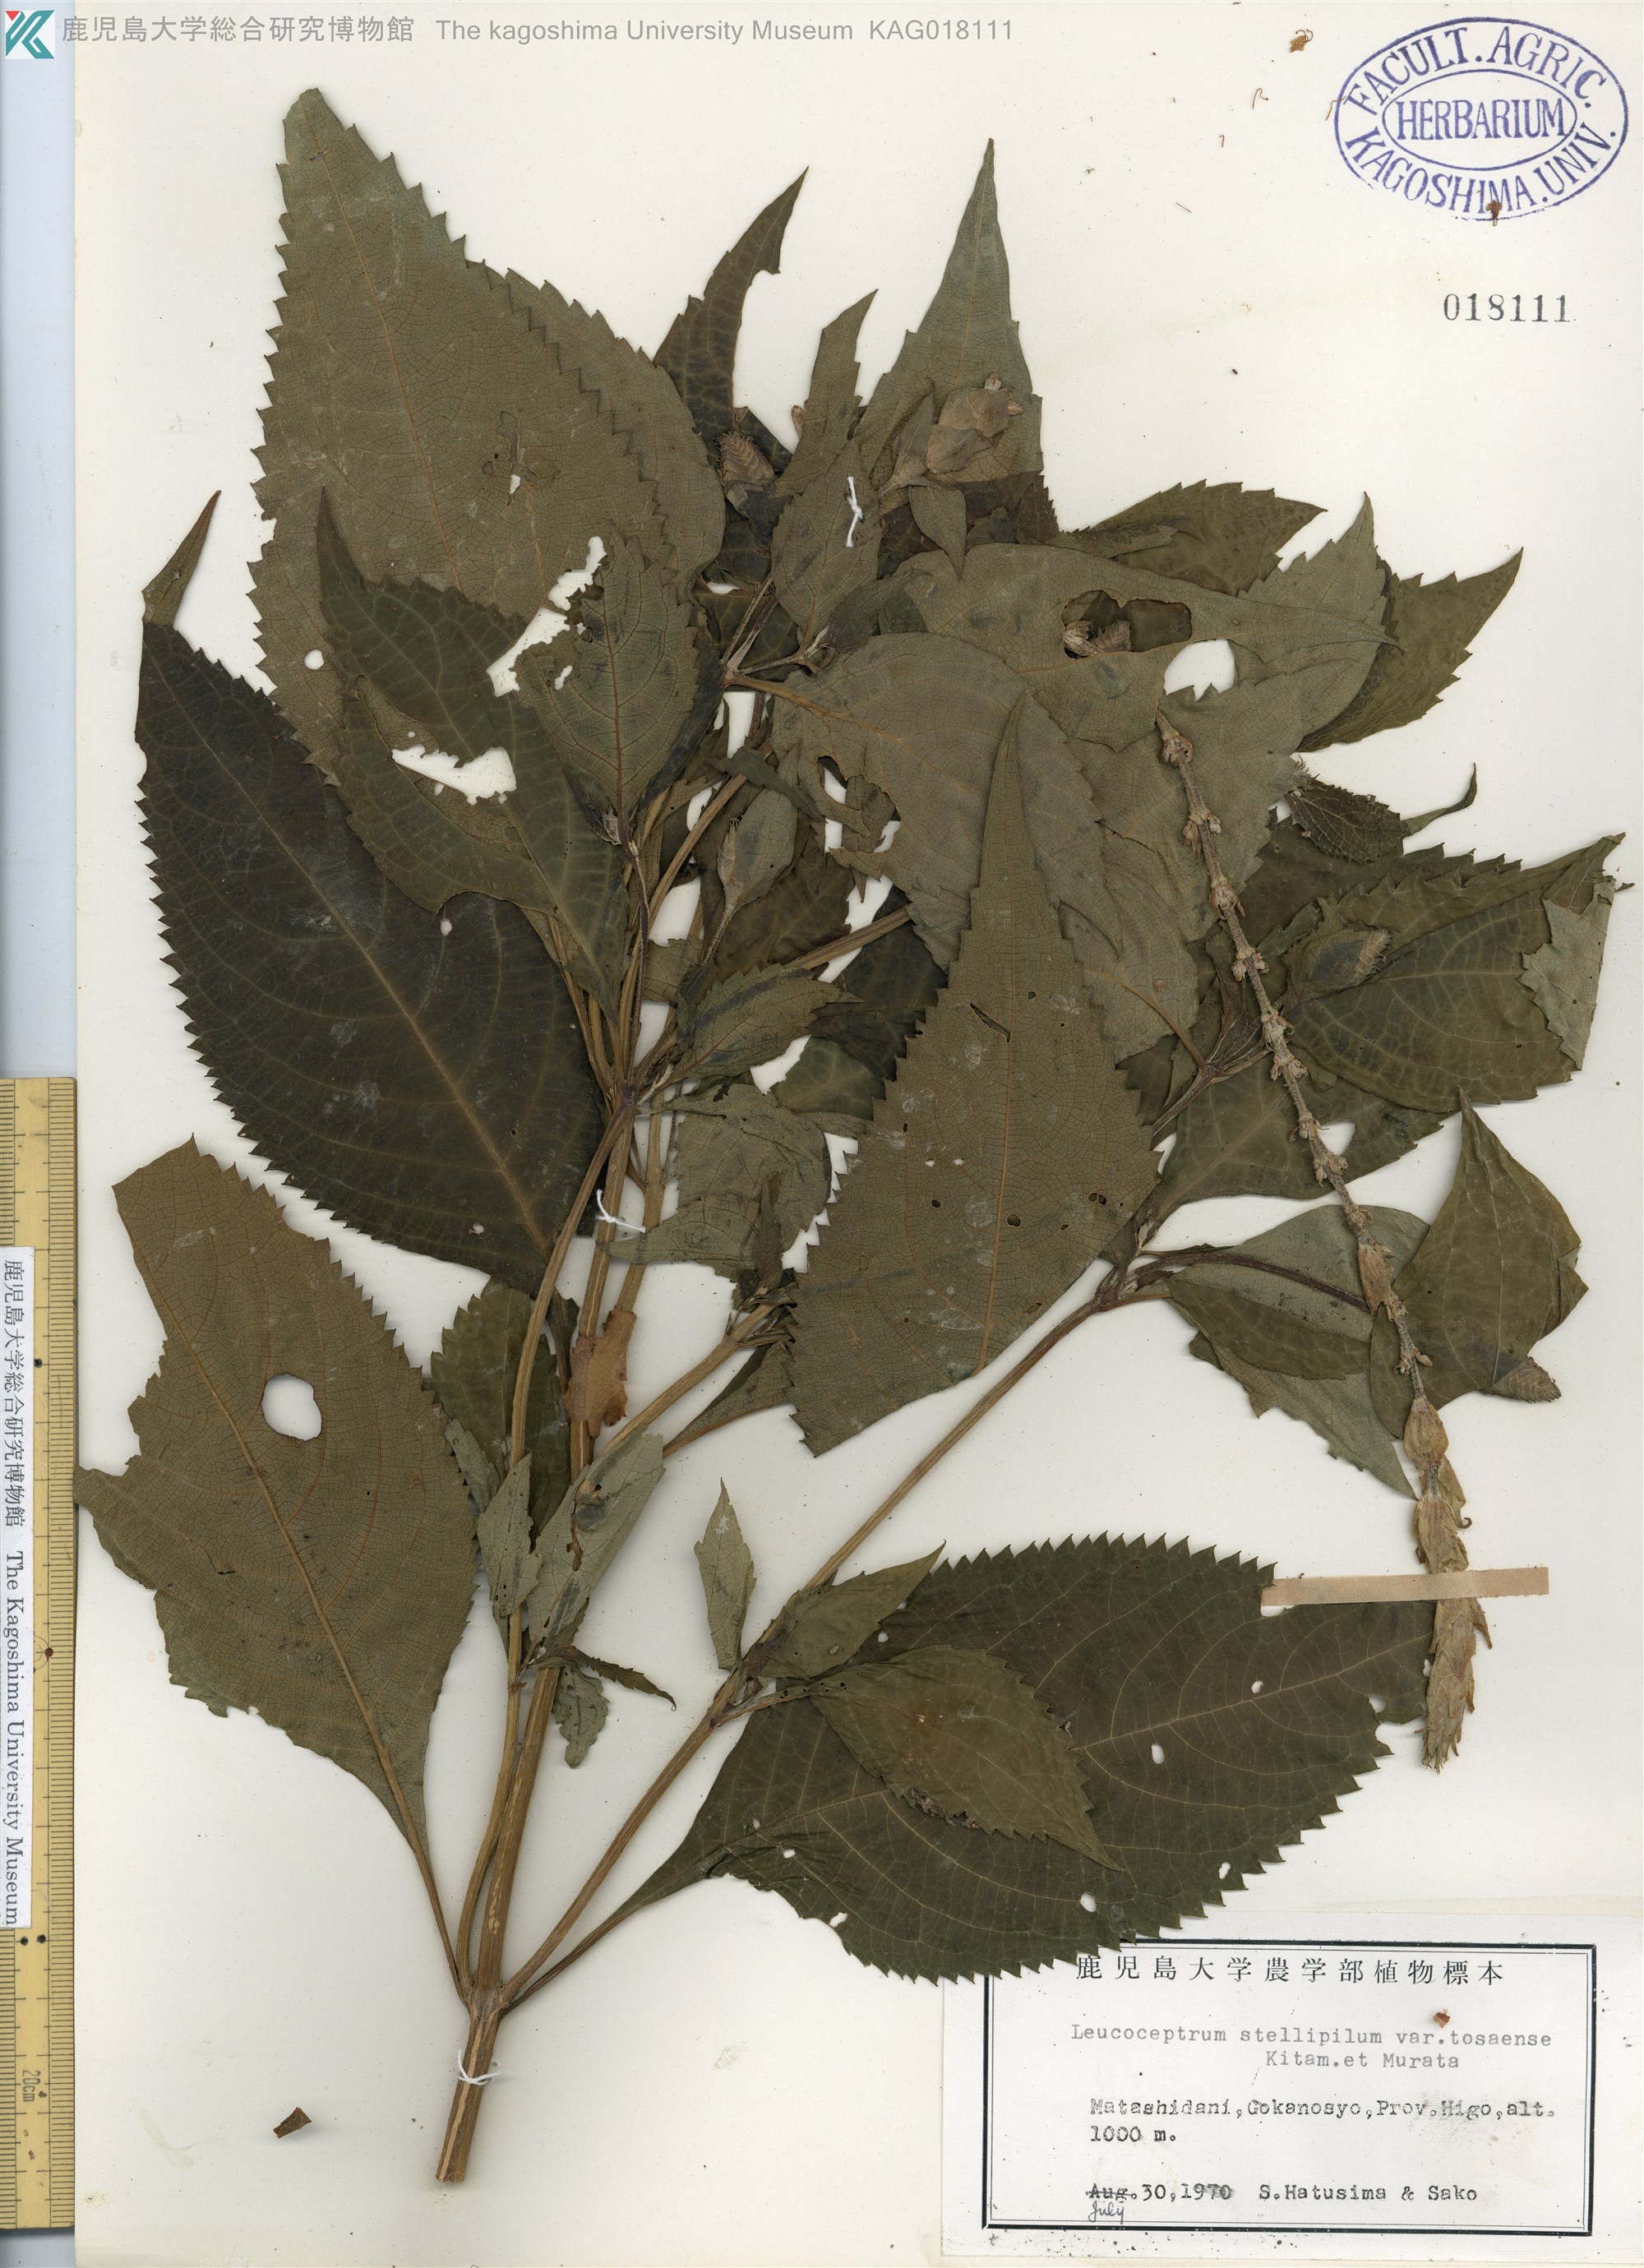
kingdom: Plantae
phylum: Tracheophyta
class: Magnoliopsida
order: Lamiales
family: Lamiaceae
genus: Comanthosphace
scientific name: Comanthosphace japonica
